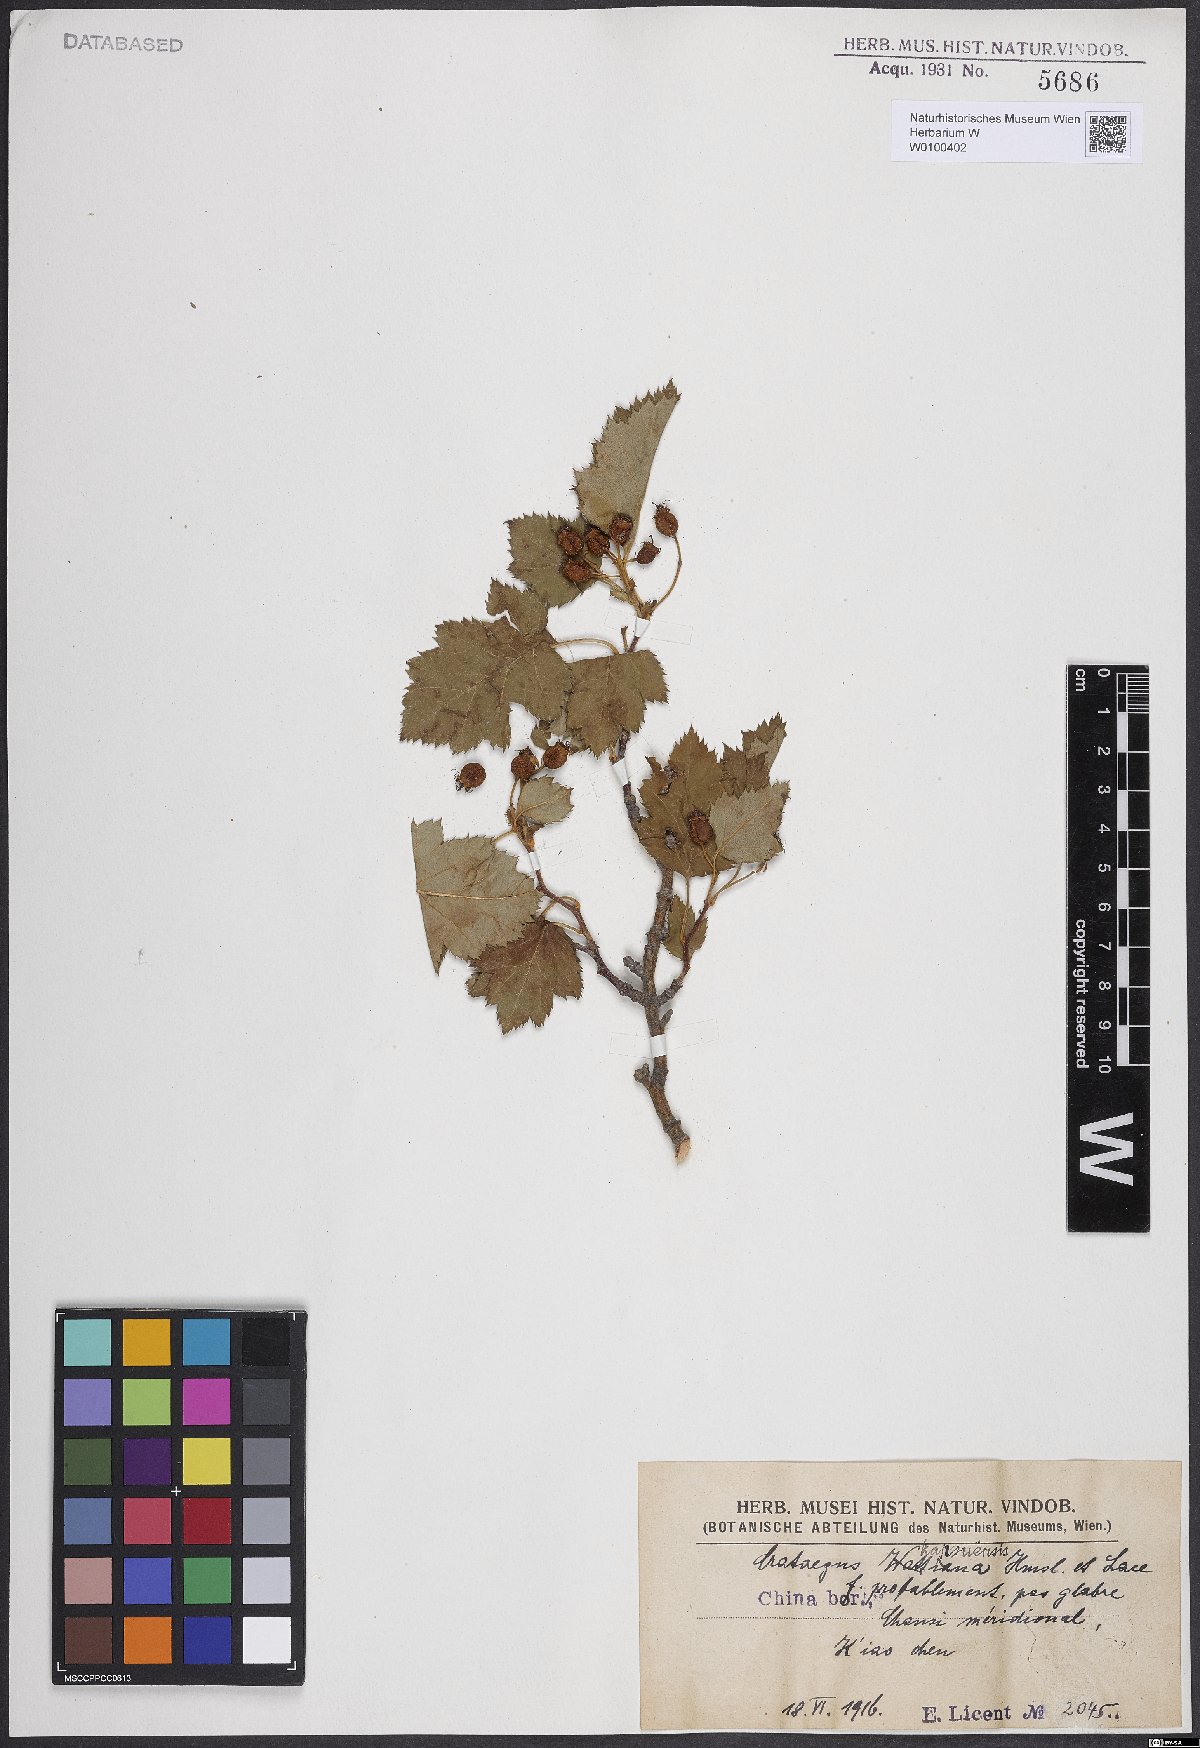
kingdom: Plantae
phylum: Tracheophyta
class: Magnoliopsida
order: Rosales
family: Rosaceae
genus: Crataegus
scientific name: Crataegus kansuensis
